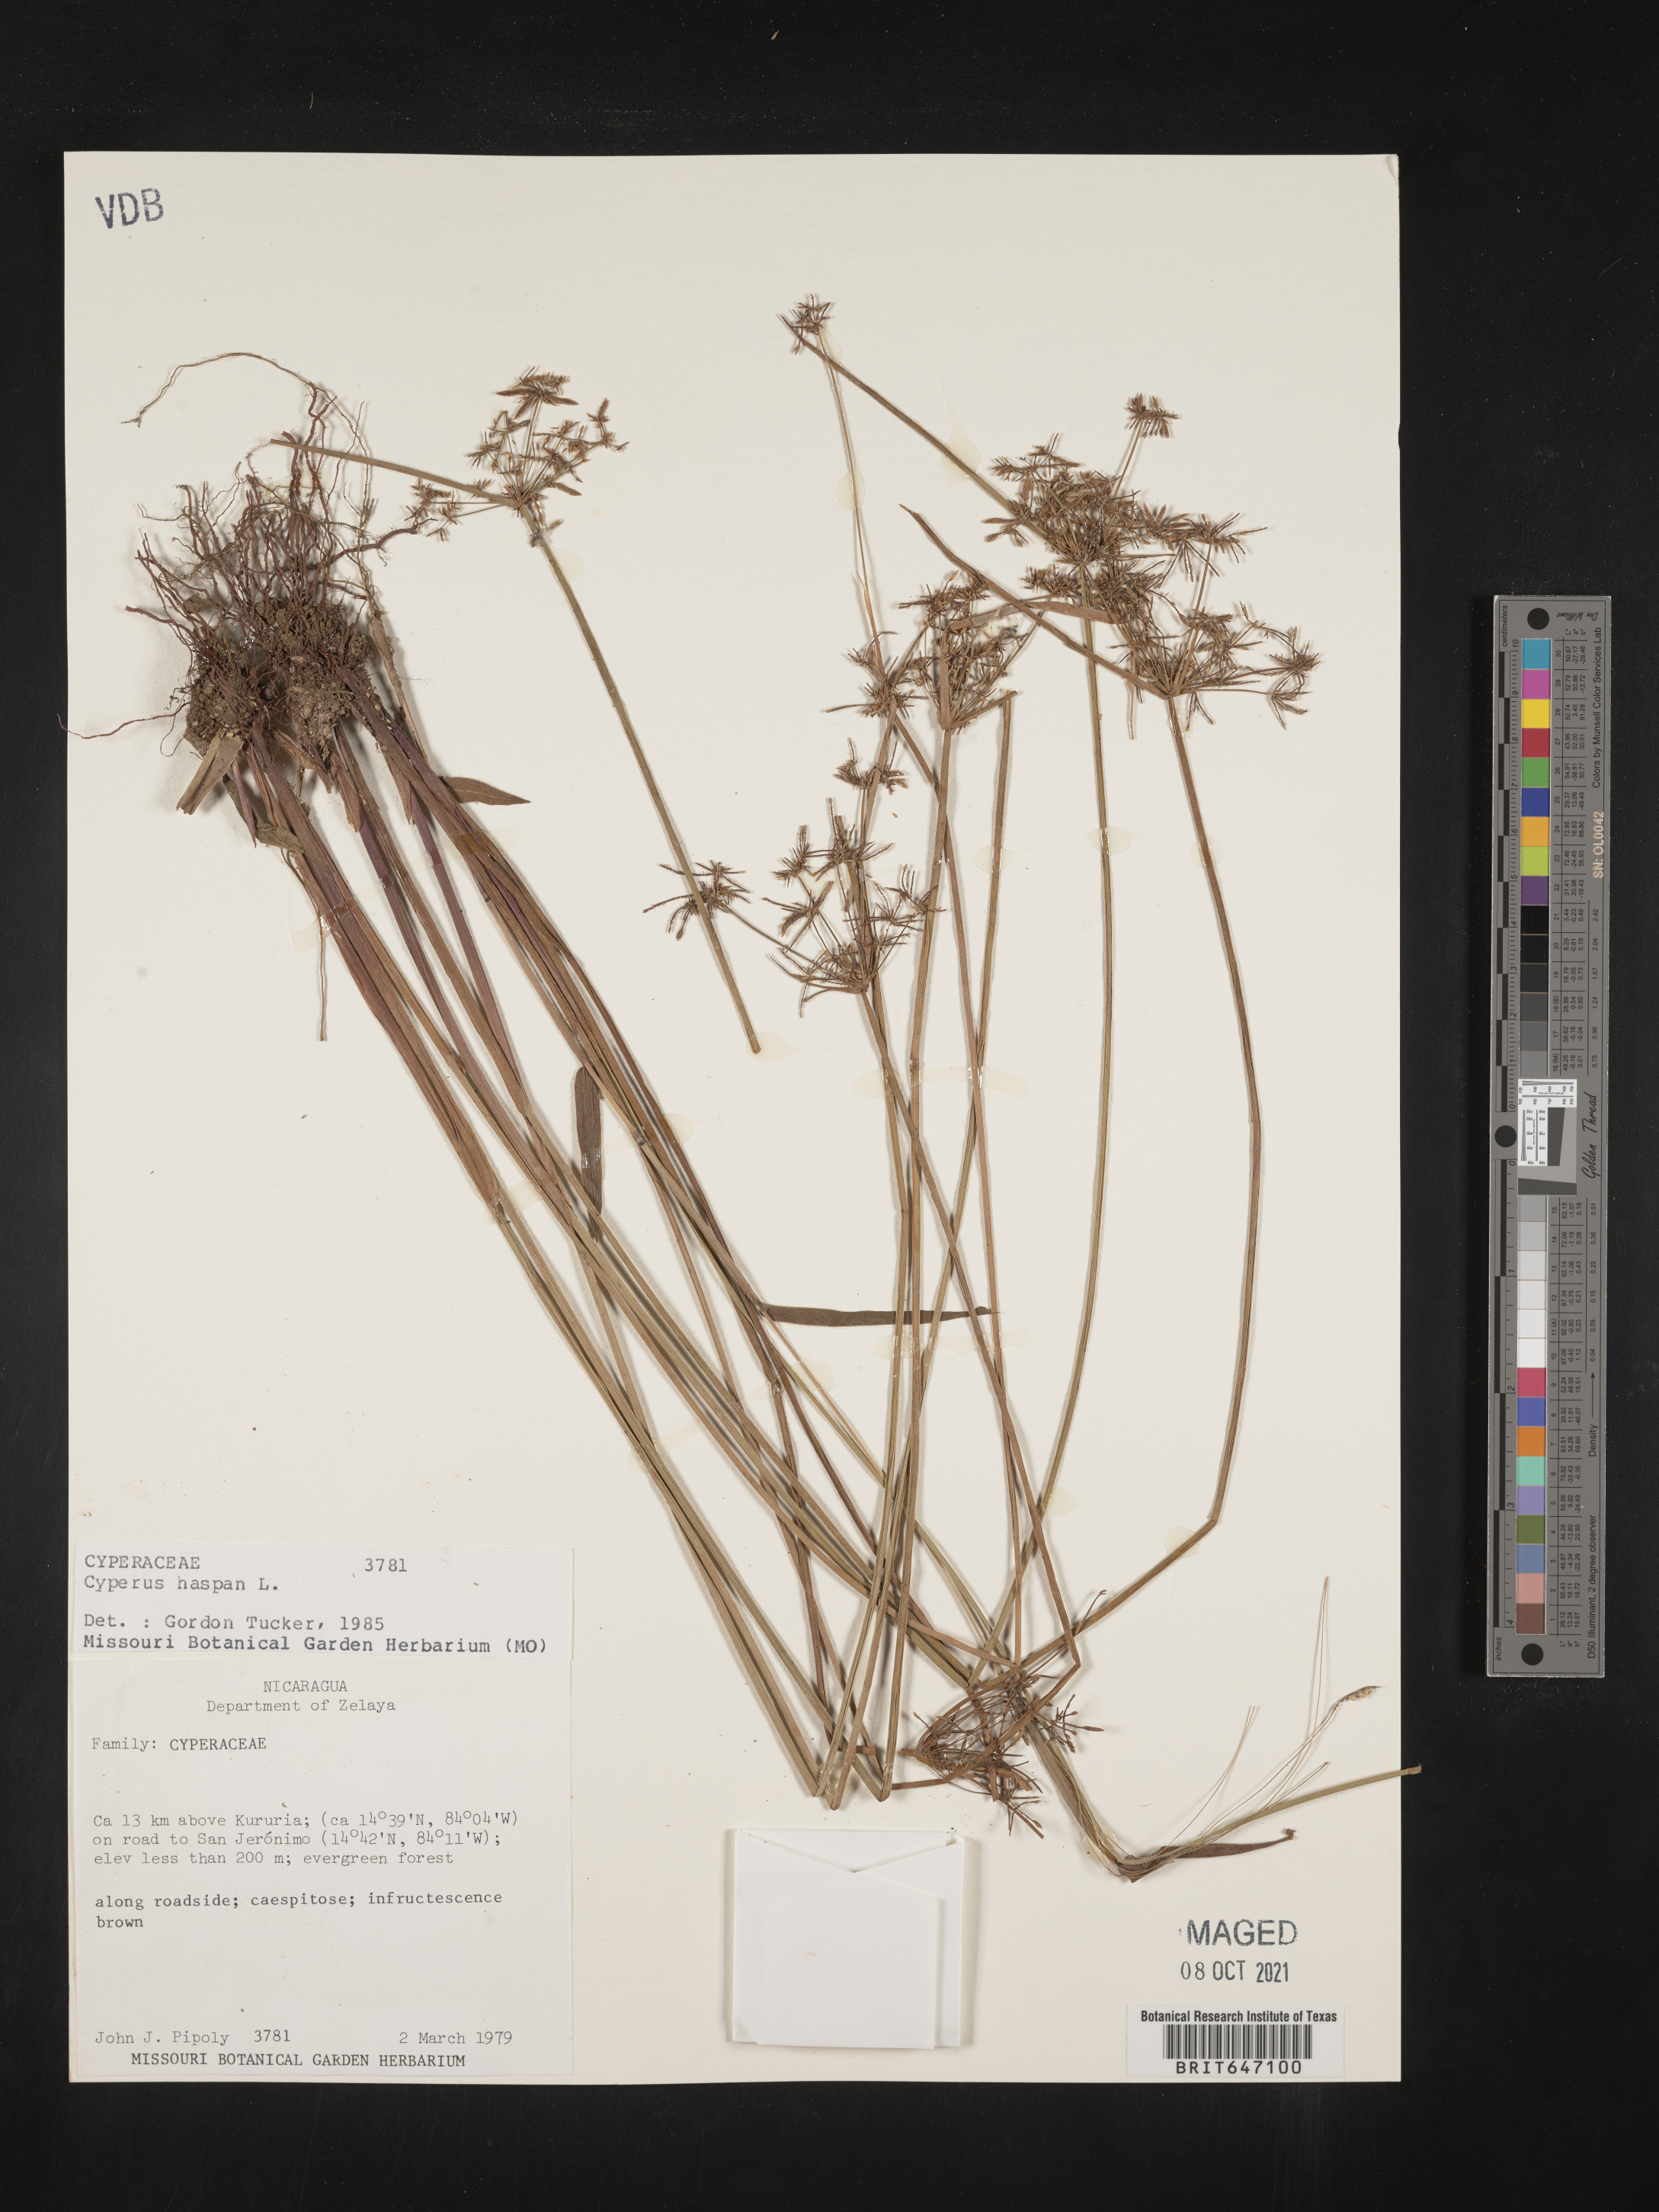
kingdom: Plantae
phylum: Tracheophyta
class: Liliopsida
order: Poales
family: Cyperaceae
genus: Cyperus
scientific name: Cyperus haspan
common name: Haspan flatsedge
